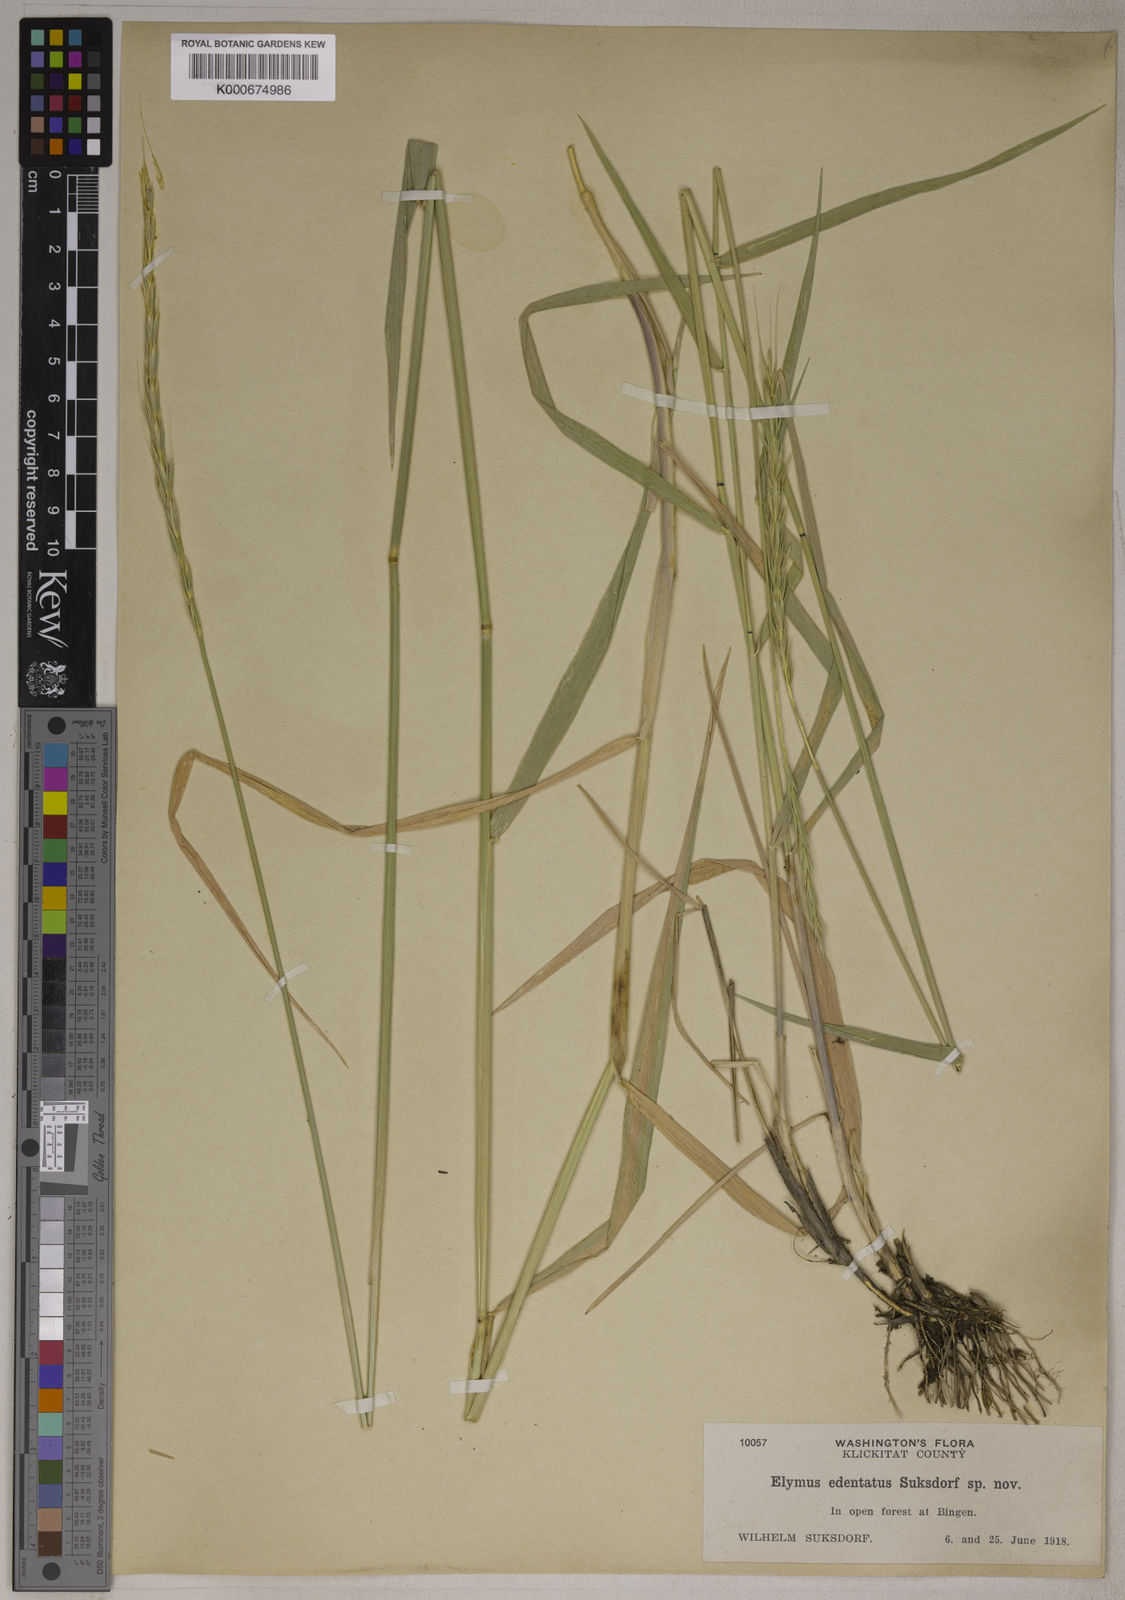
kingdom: Plantae
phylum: Tracheophyta
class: Liliopsida
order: Poales
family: Poaceae
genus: Elymus
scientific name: Elymus glaucus
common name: Blue wild rye
